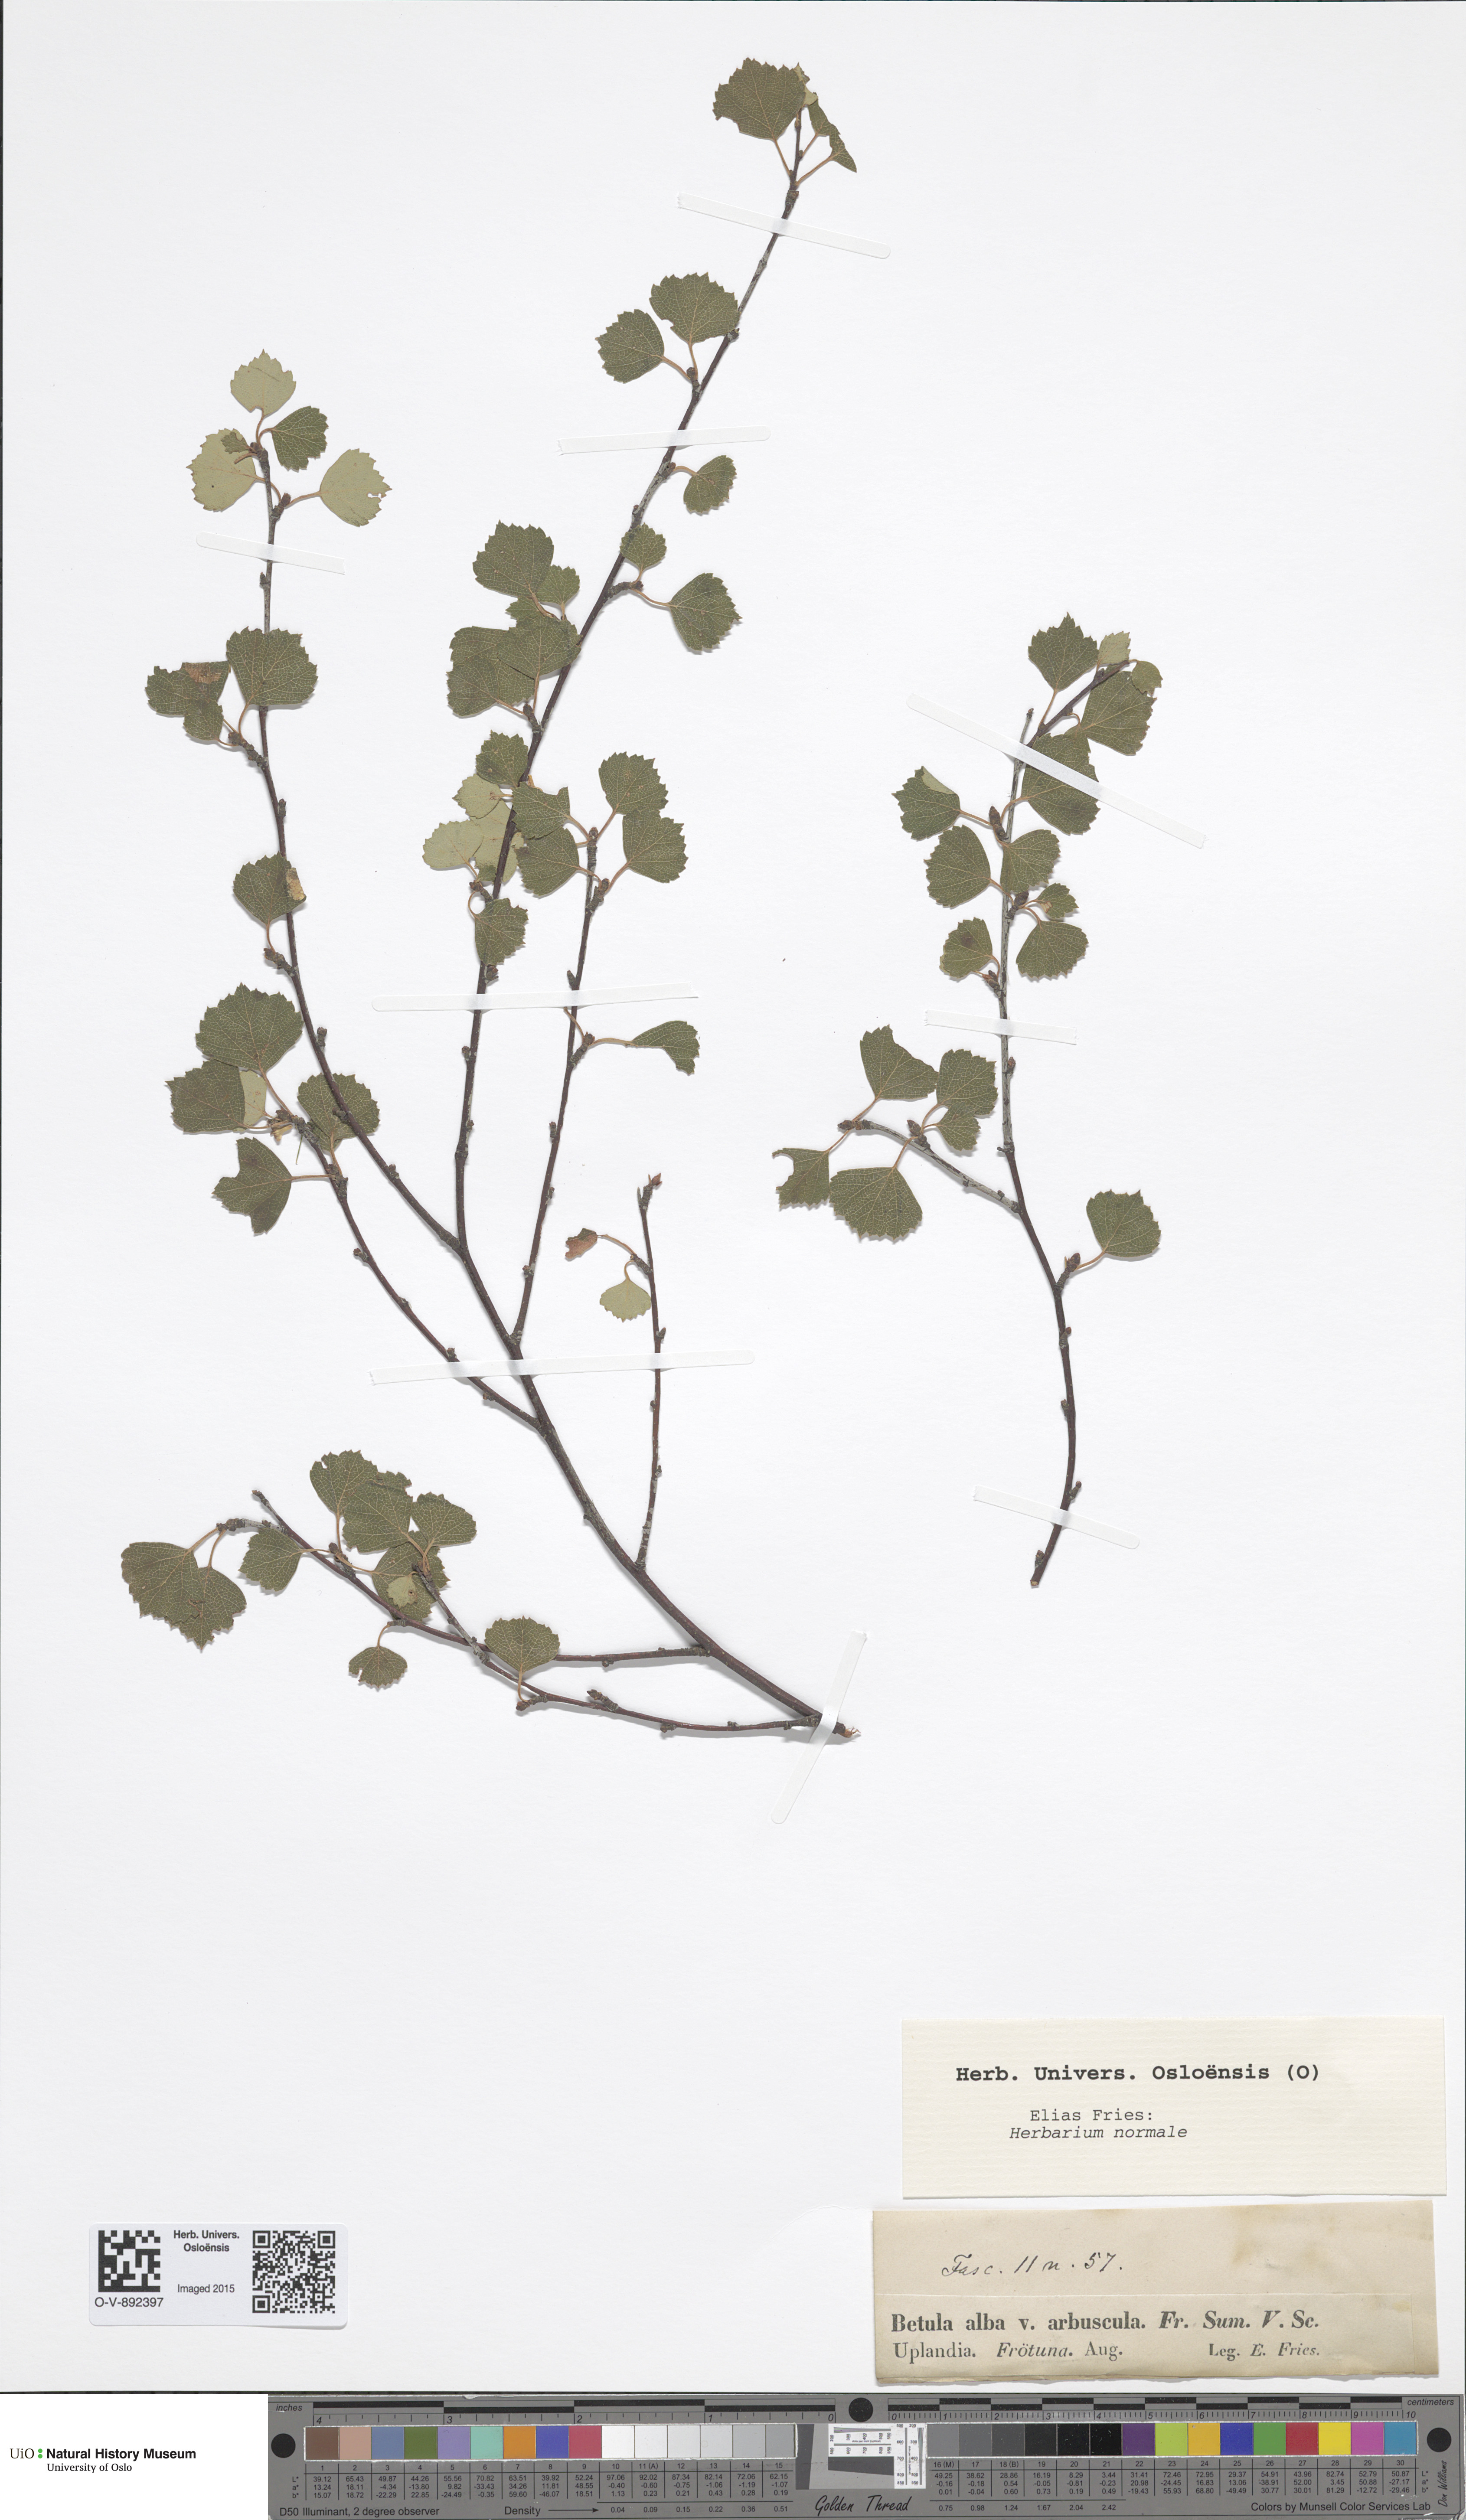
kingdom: Plantae
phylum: Tracheophyta
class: Magnoliopsida
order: Fagales
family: Betulaceae
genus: Betula
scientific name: Betula pubescens
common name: Downy birch
